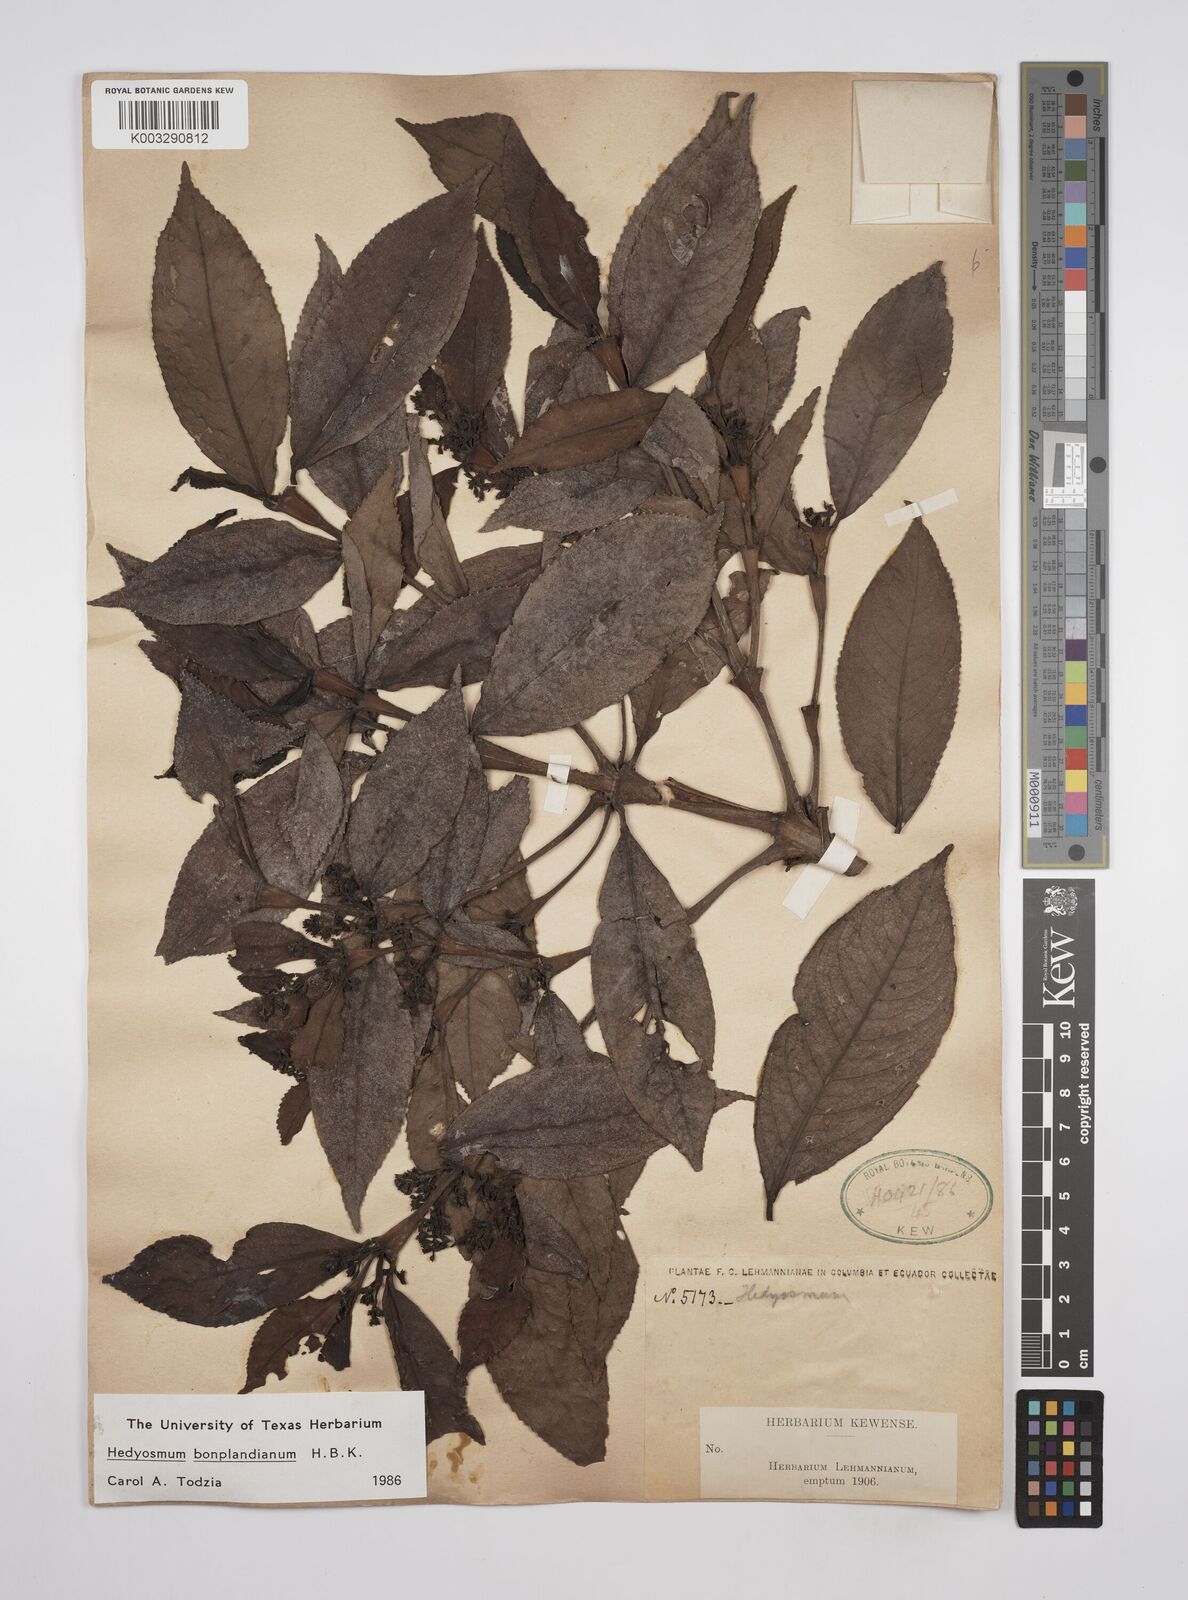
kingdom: Plantae
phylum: Tracheophyta
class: Magnoliopsida
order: Chloranthales
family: Chloranthaceae
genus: Hedyosmum
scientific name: Hedyosmum
